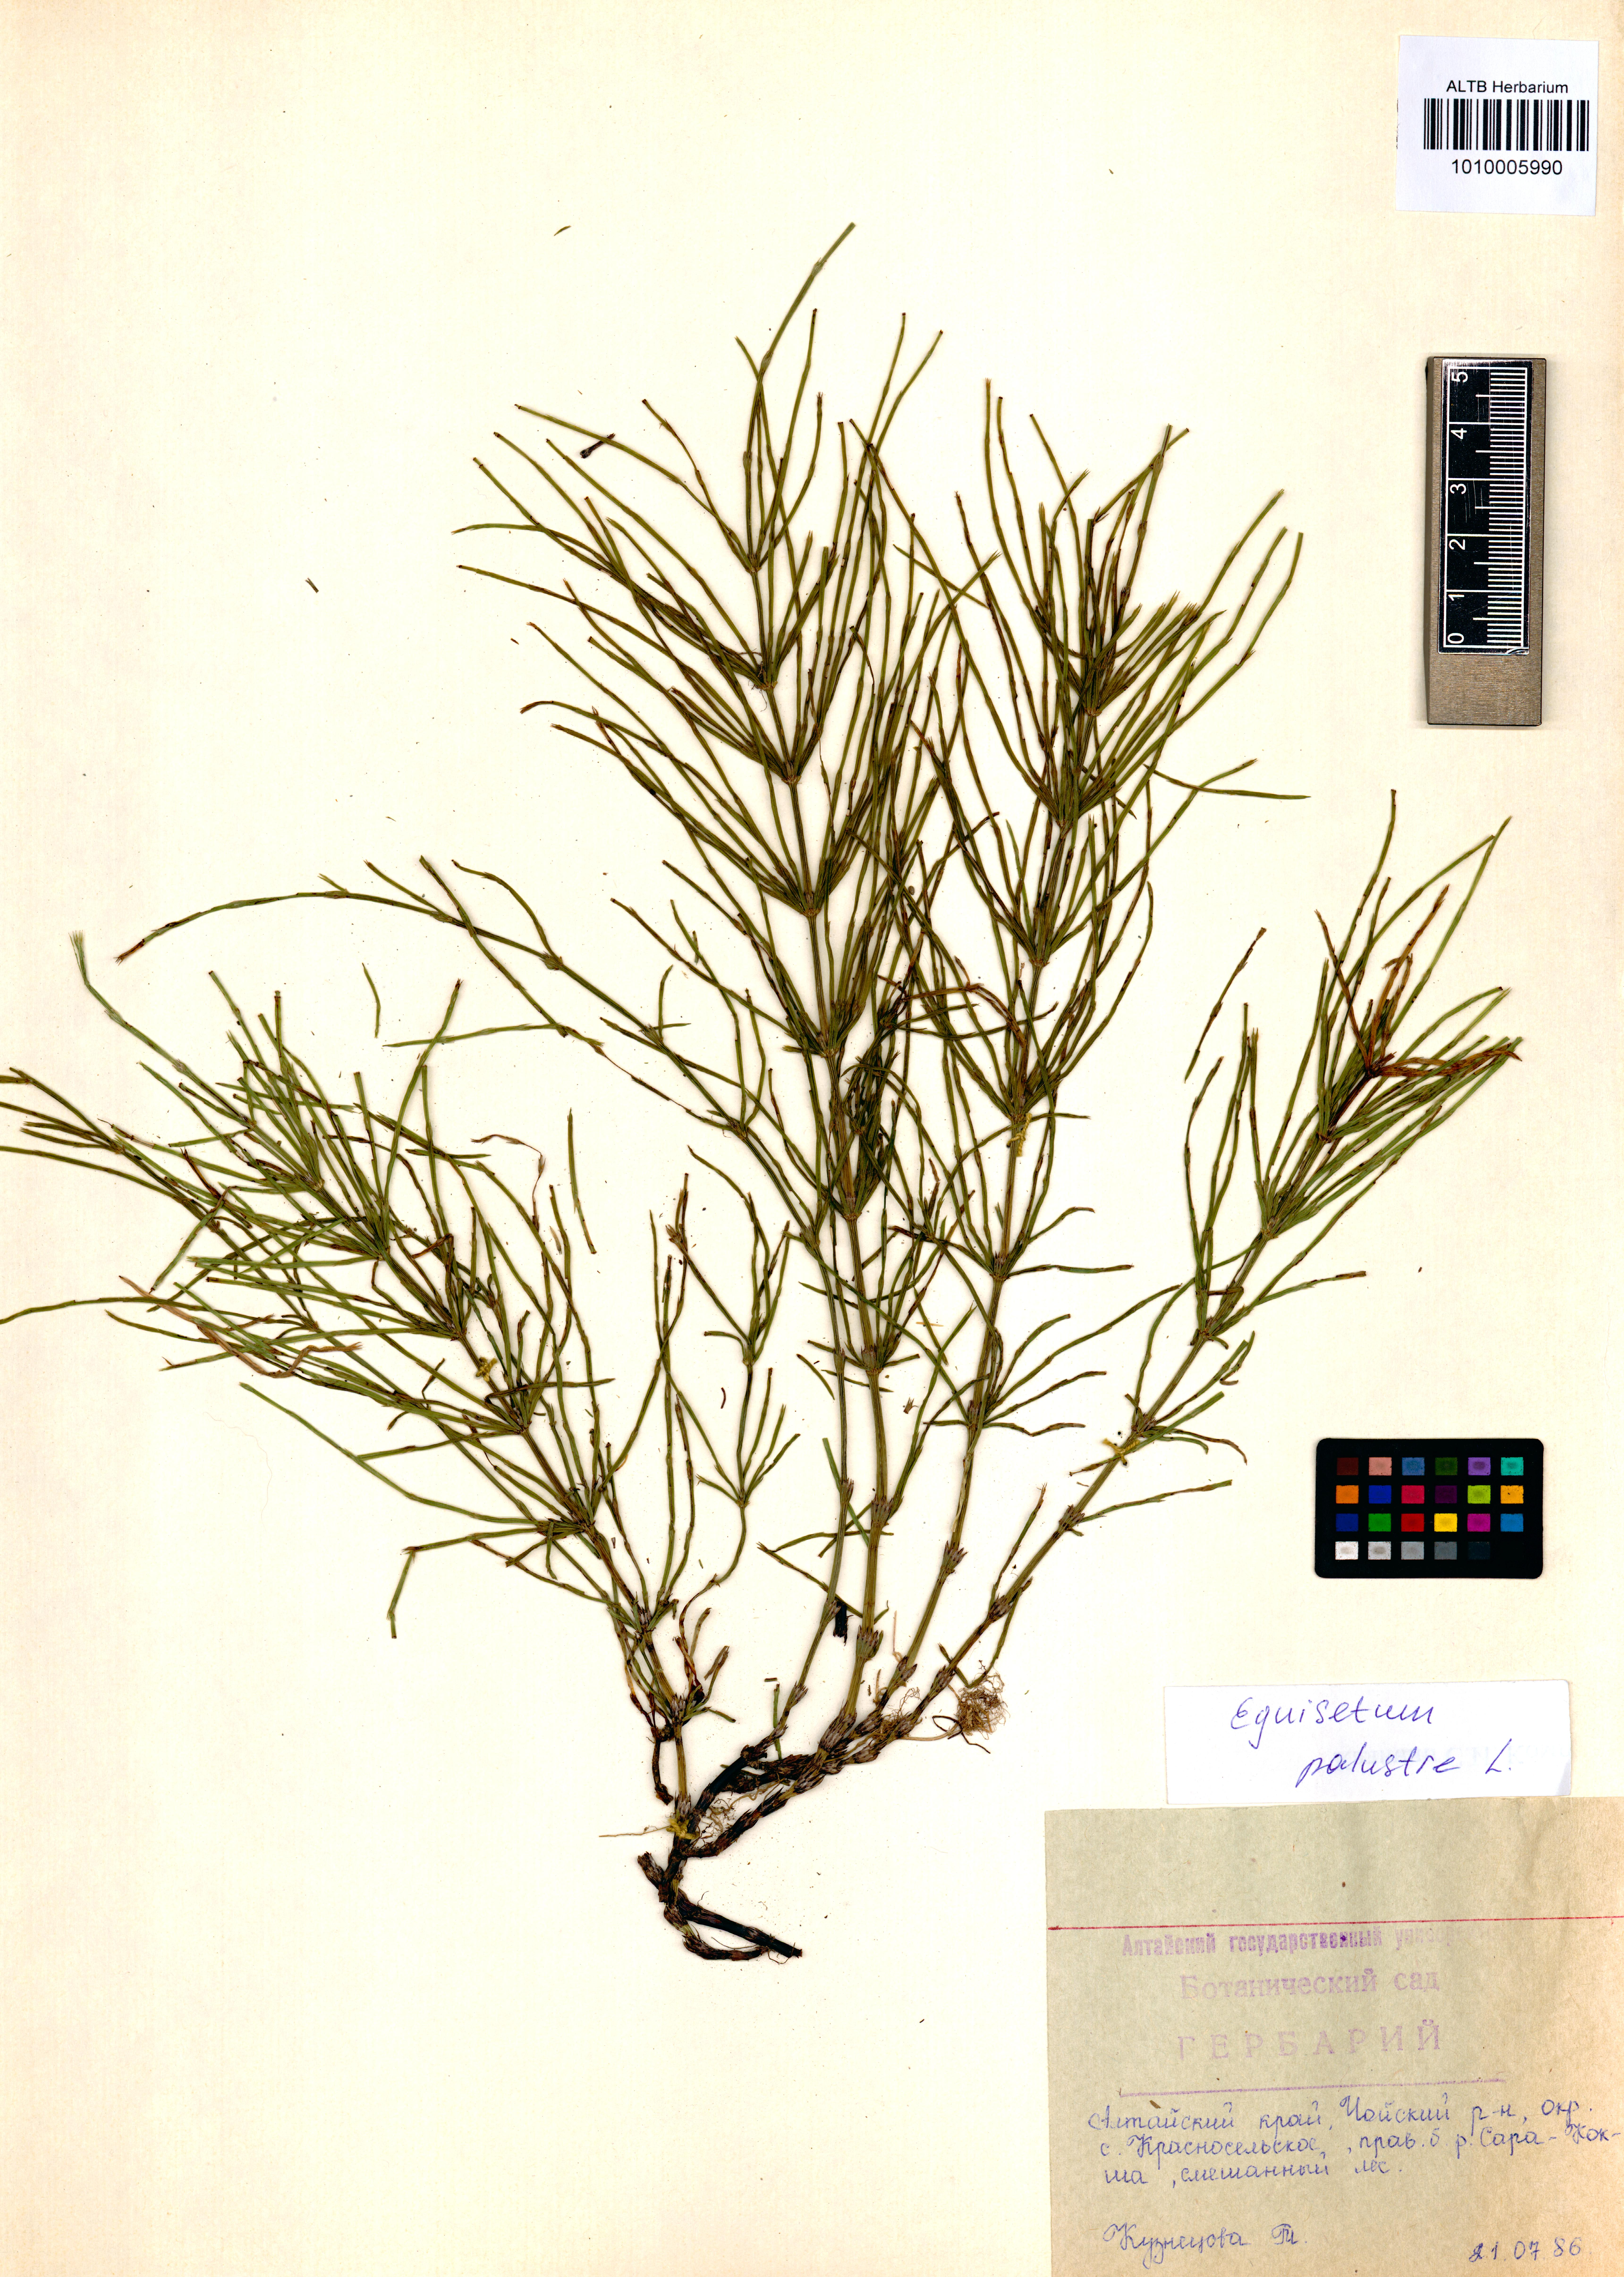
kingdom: Plantae
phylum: Tracheophyta
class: Polypodiopsida
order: Equisetales
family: Equisetaceae
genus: Equisetum
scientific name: Equisetum palustre
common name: Marsh horsetail
